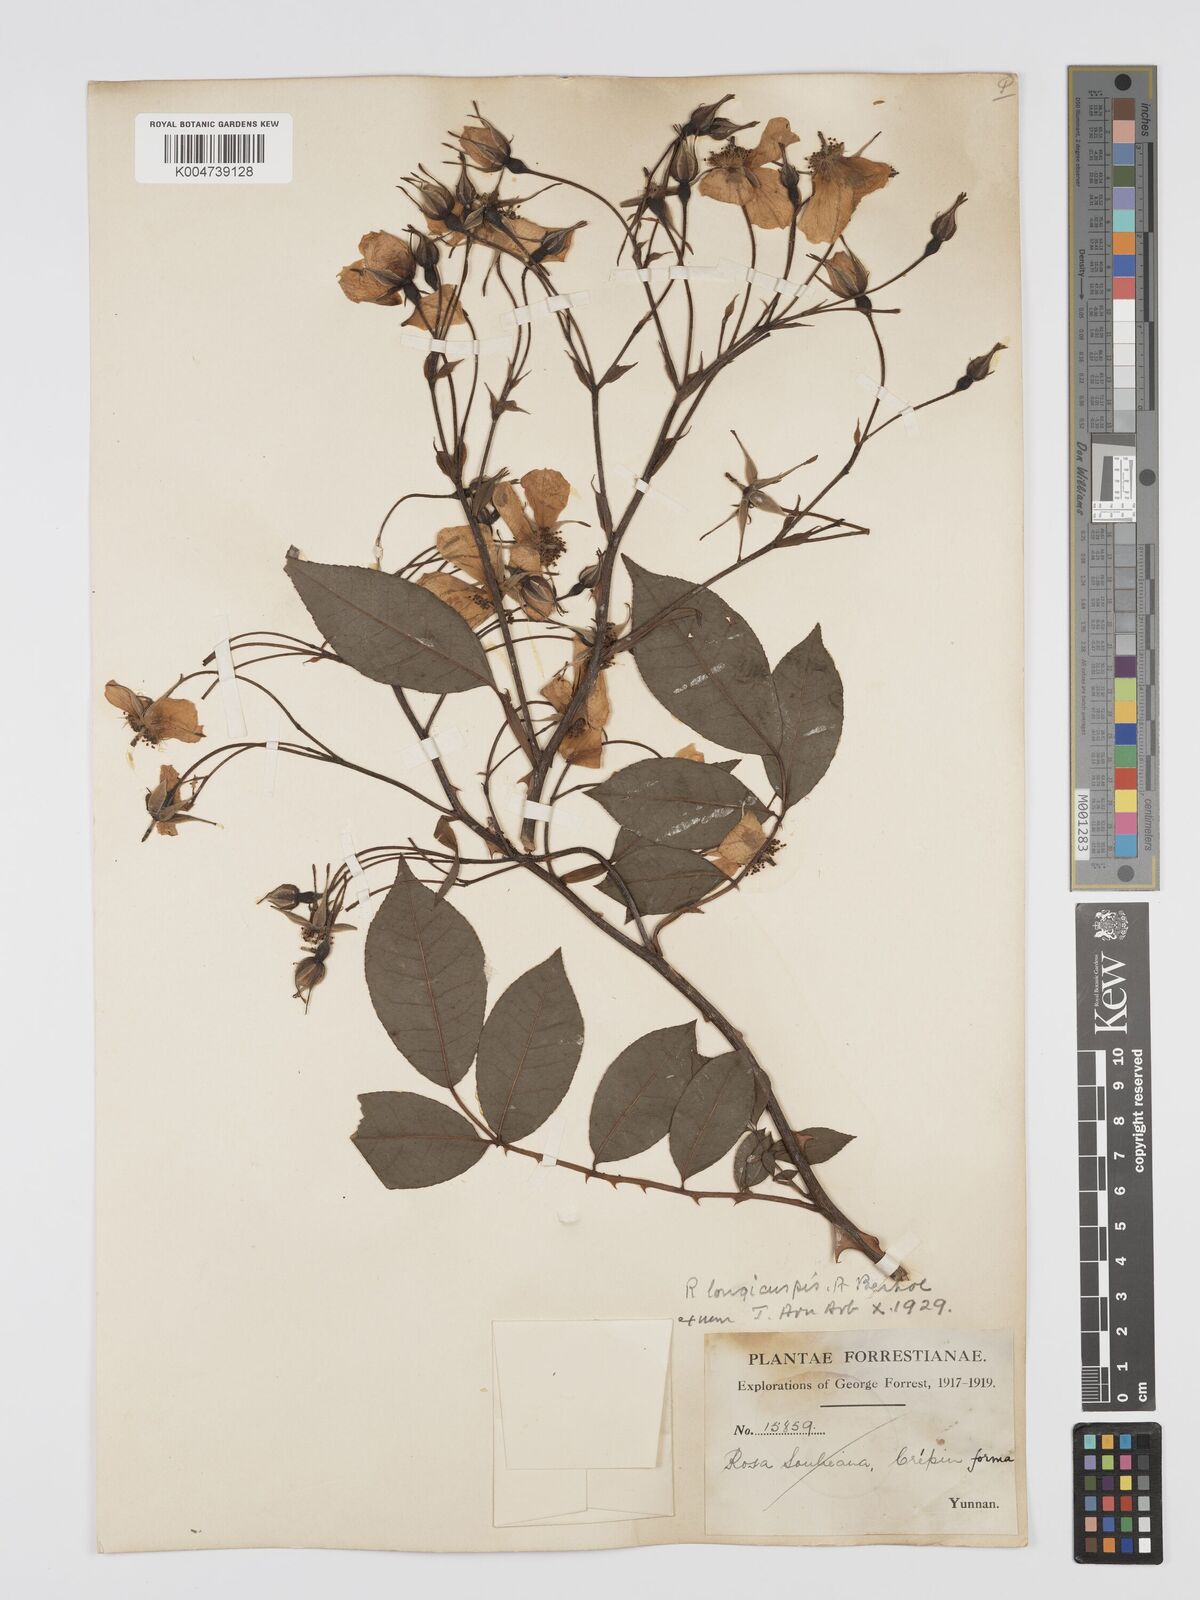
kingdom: Plantae
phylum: Tracheophyta
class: Magnoliopsida
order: Rosales
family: Rosaceae
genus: Rosa
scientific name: Rosa longicuspis
